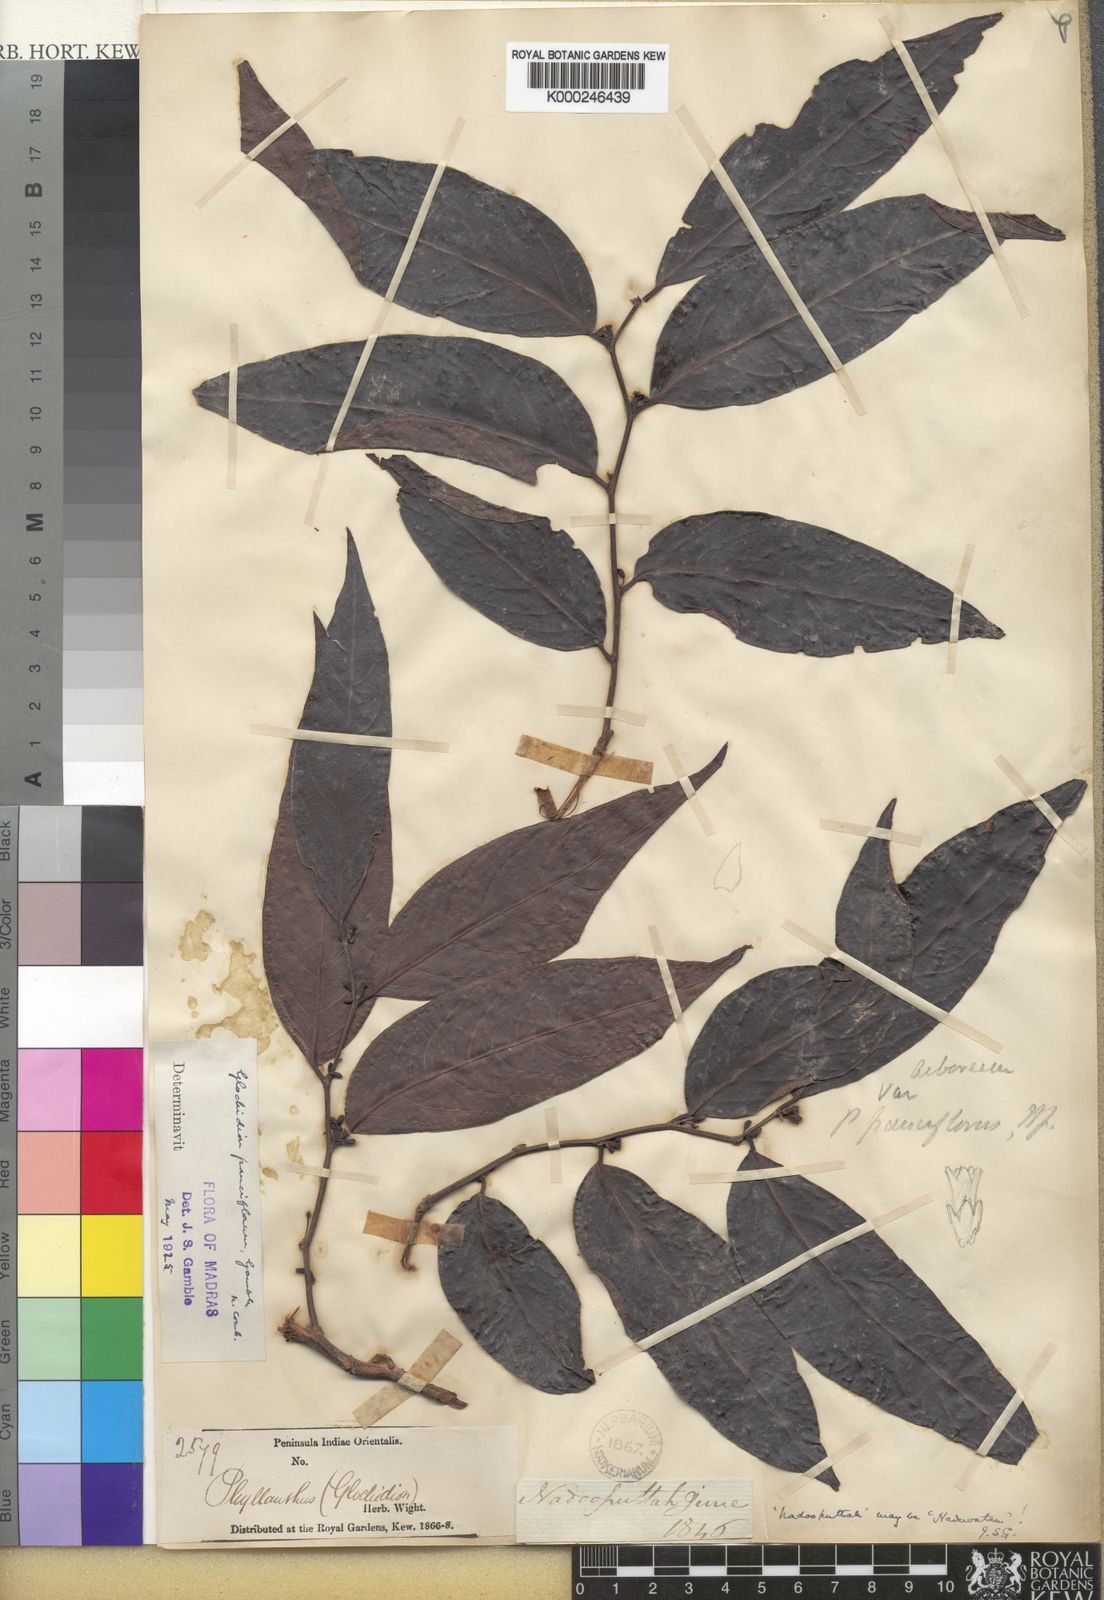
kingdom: Plantae
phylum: Tracheophyta
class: Magnoliopsida
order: Malpighiales
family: Phyllanthaceae
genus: Glochidion
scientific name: Glochidion candolleanum
